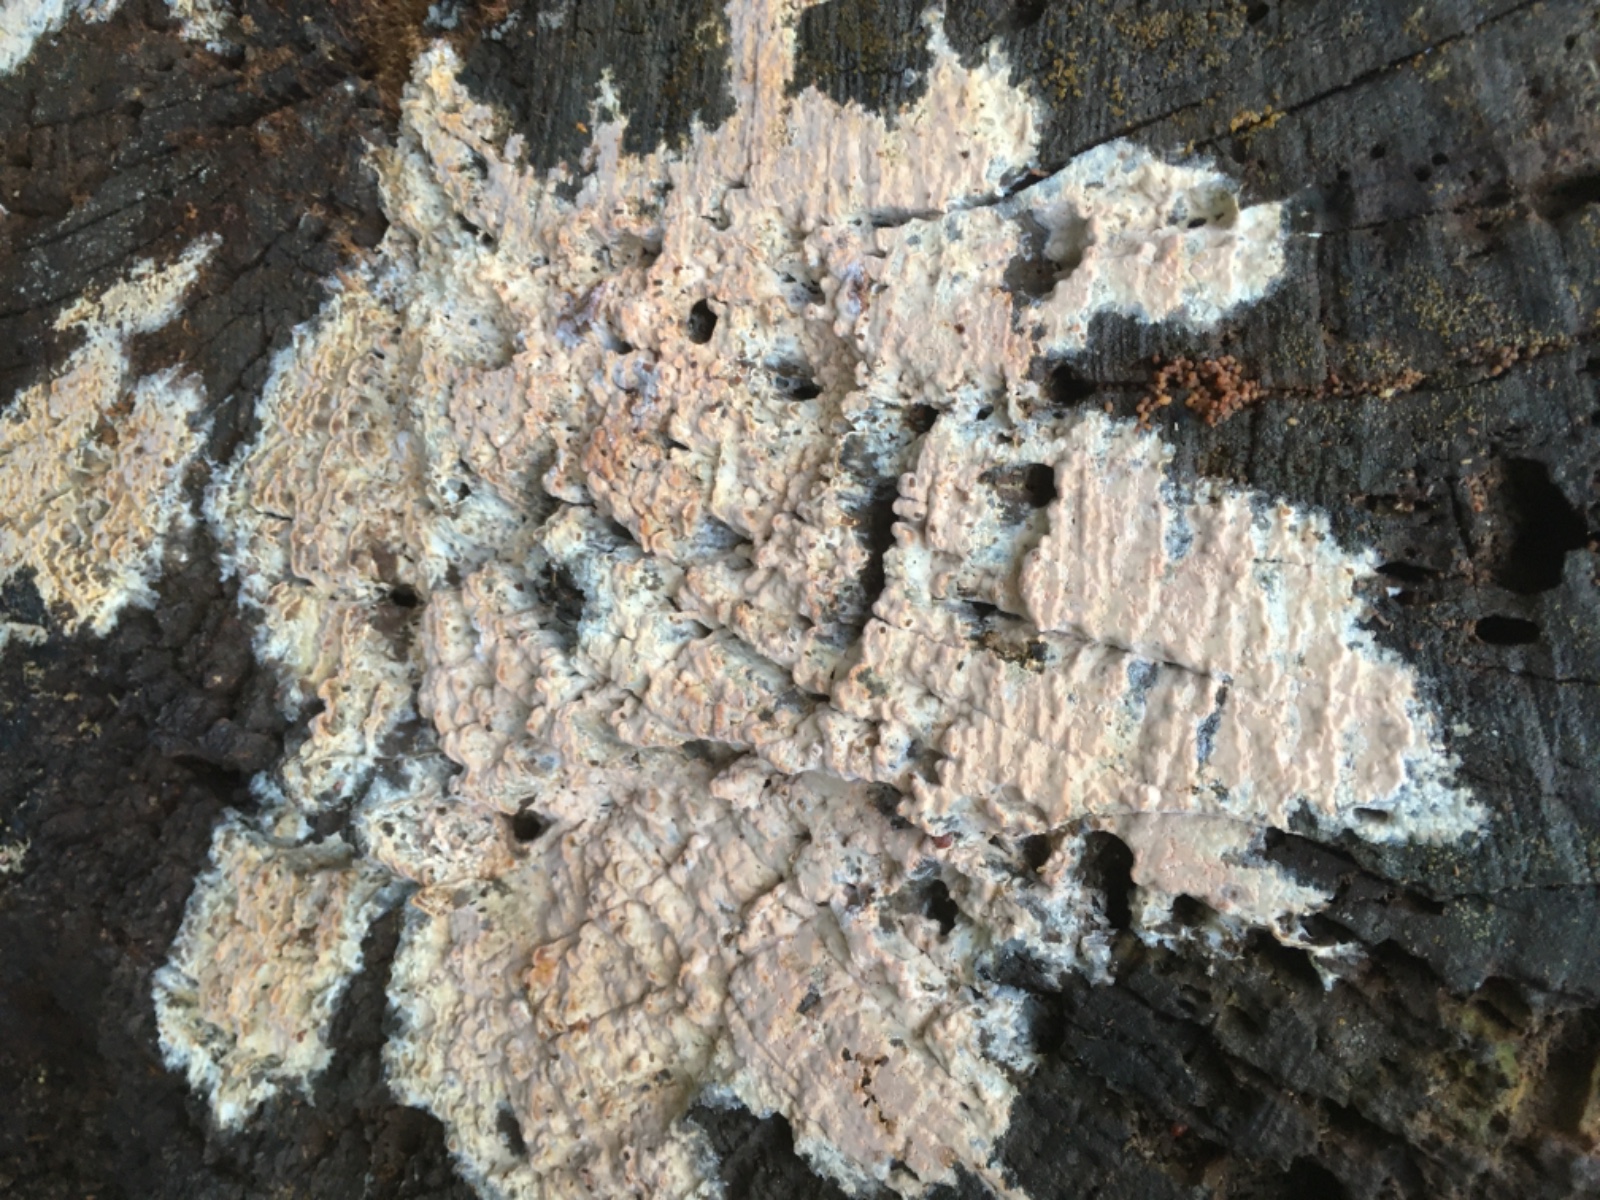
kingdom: Fungi
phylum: Basidiomycota
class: Agaricomycetes
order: Agaricales
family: Physalacriaceae
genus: Cylindrobasidium
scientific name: Cylindrobasidium evolvens
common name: sprækkehinde
